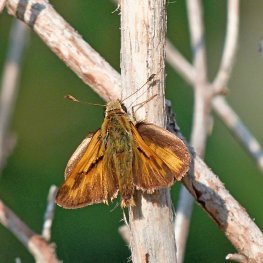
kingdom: Animalia
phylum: Arthropoda
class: Insecta
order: Lepidoptera
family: Hesperiidae
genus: Ochlodes
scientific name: Ochlodes sylvanoides
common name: Woodland Skipper
